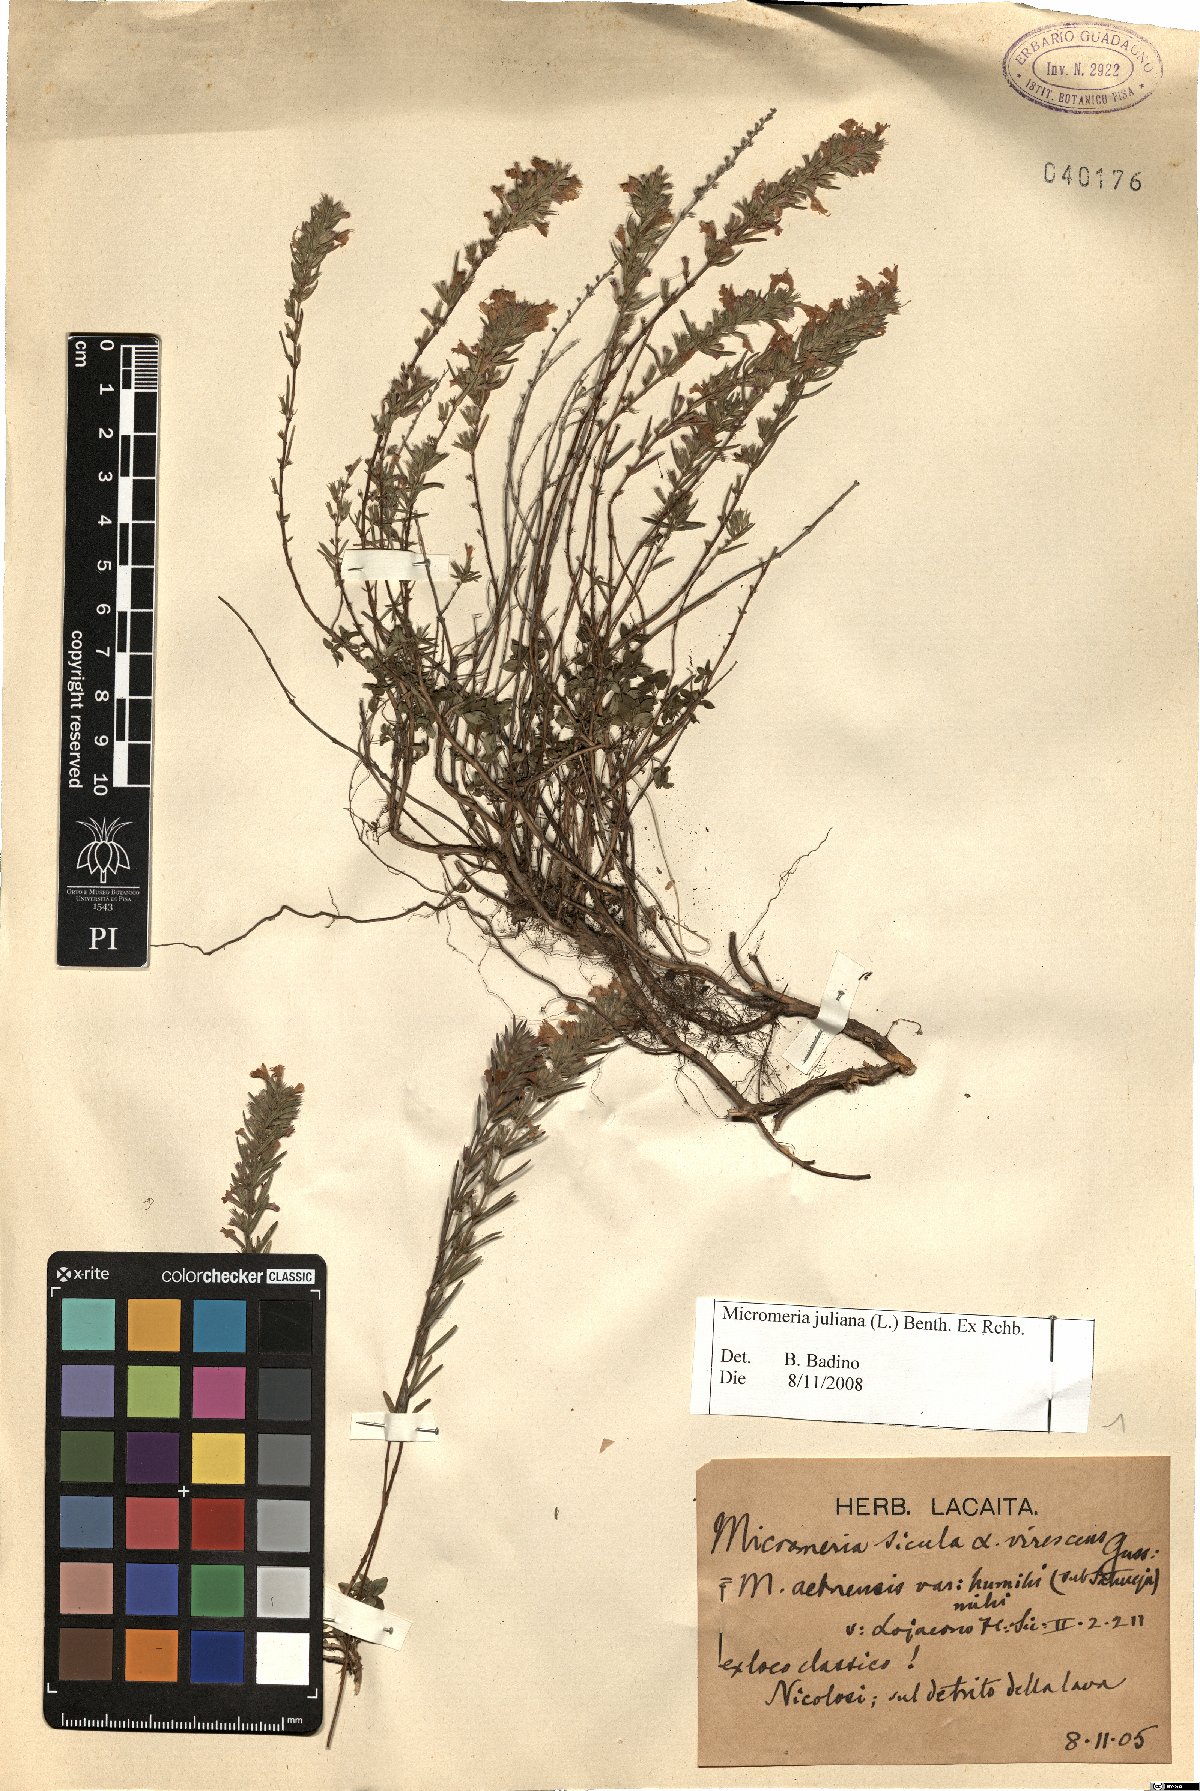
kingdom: Plantae
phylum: Tracheophyta
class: Magnoliopsida
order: Lamiales
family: Lamiaceae
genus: Micromeria
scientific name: Micromeria juliana
